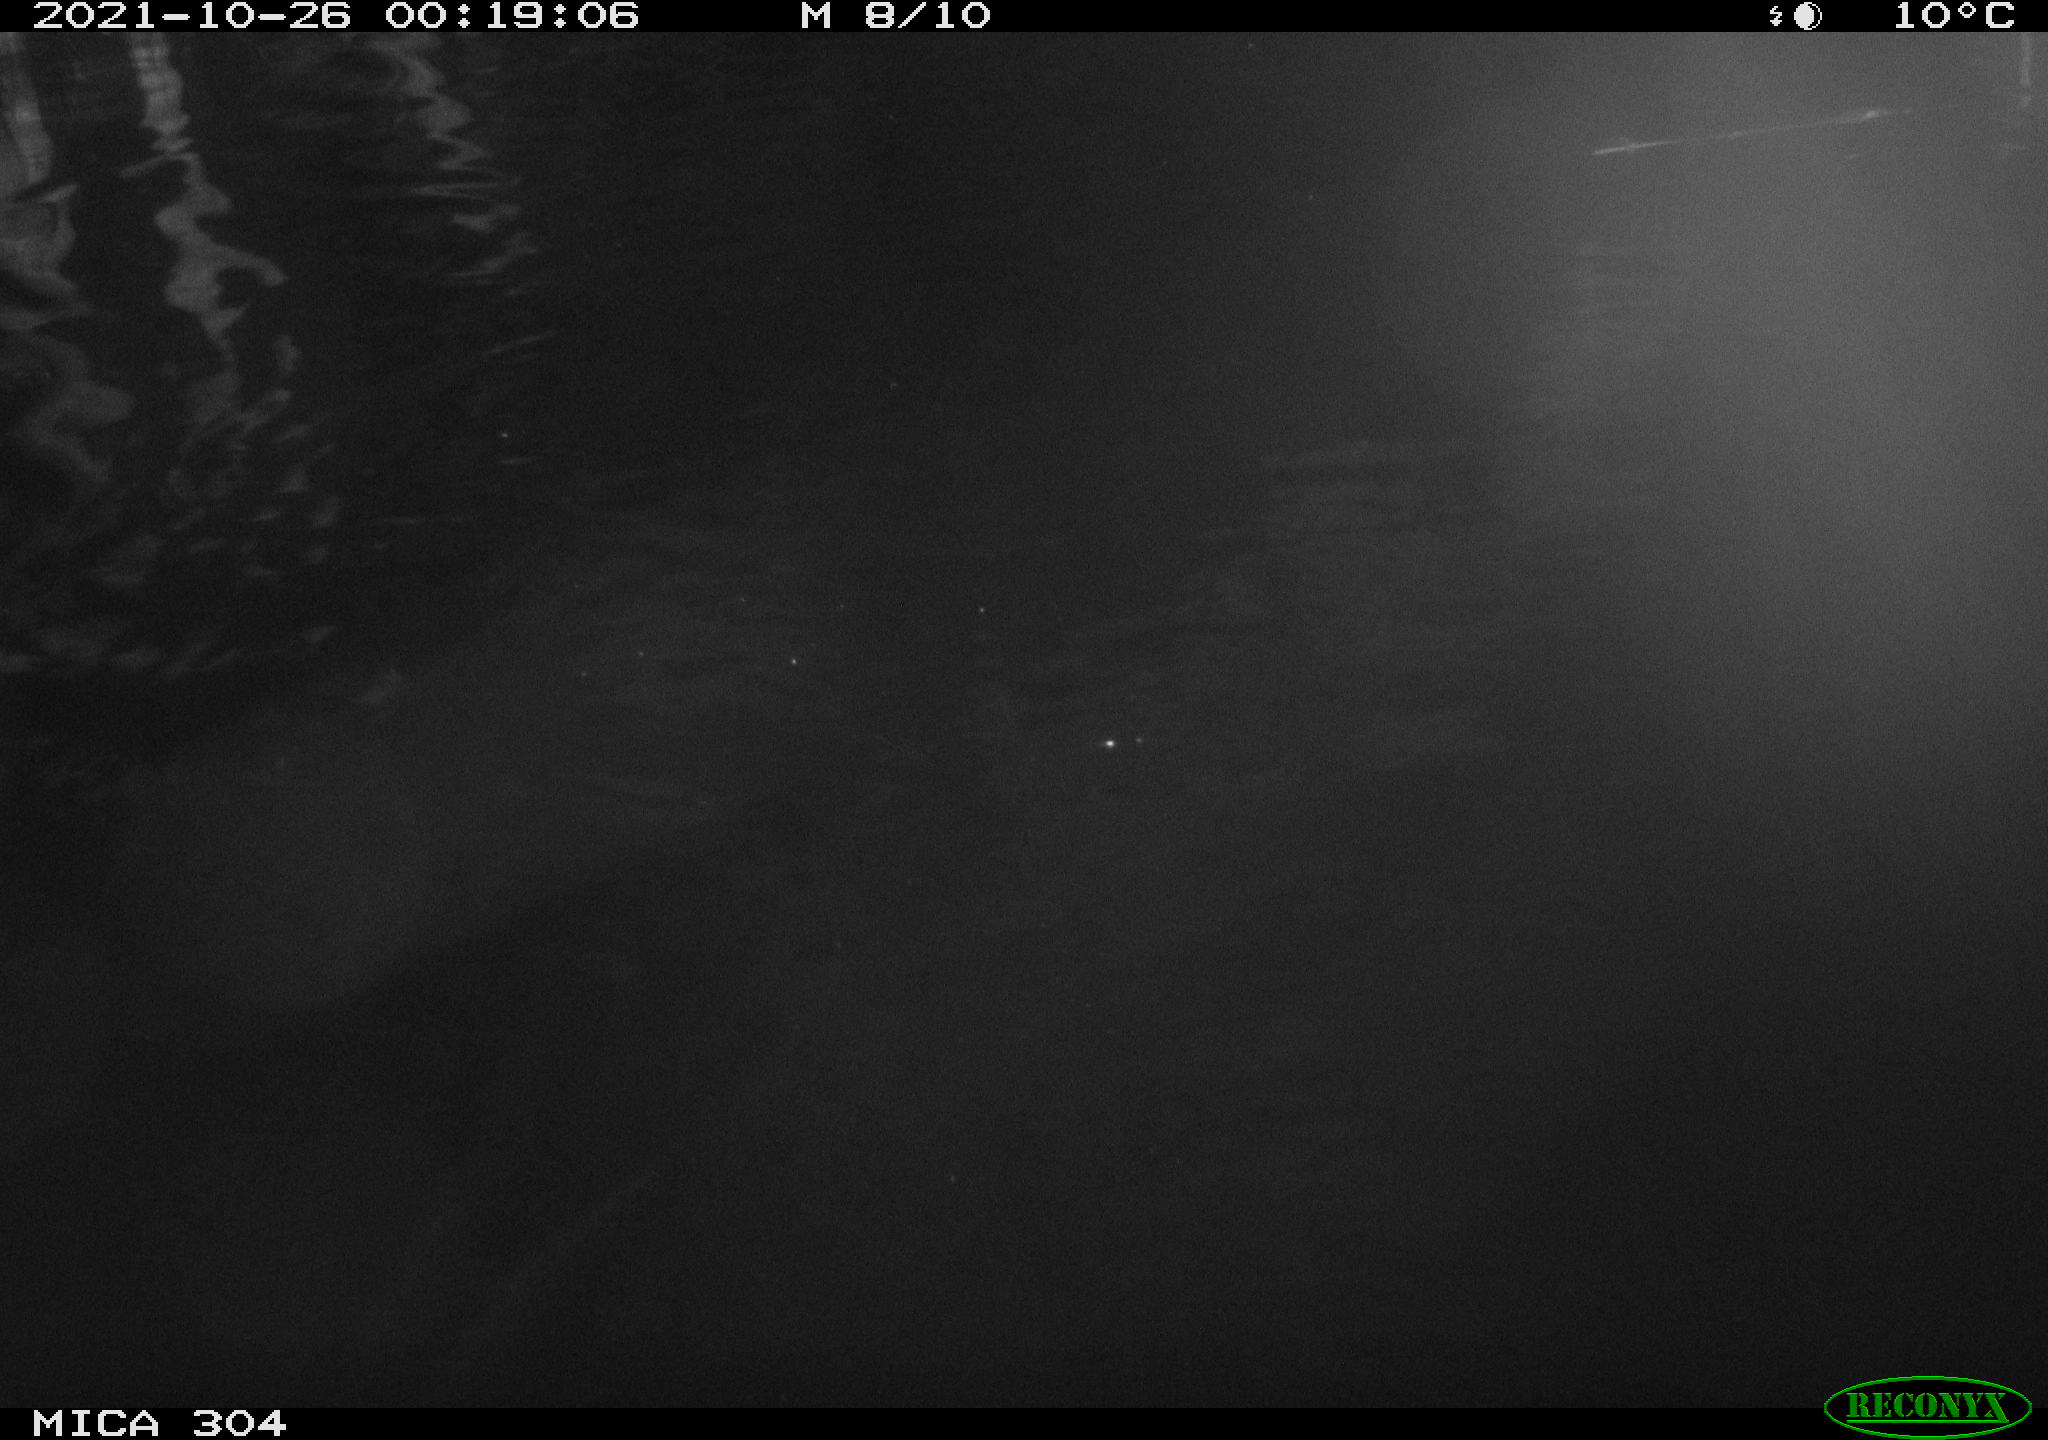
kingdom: Animalia
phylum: Chordata
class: Mammalia
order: Rodentia
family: Cricetidae
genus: Ondatra
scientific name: Ondatra zibethicus
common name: Muskrat
